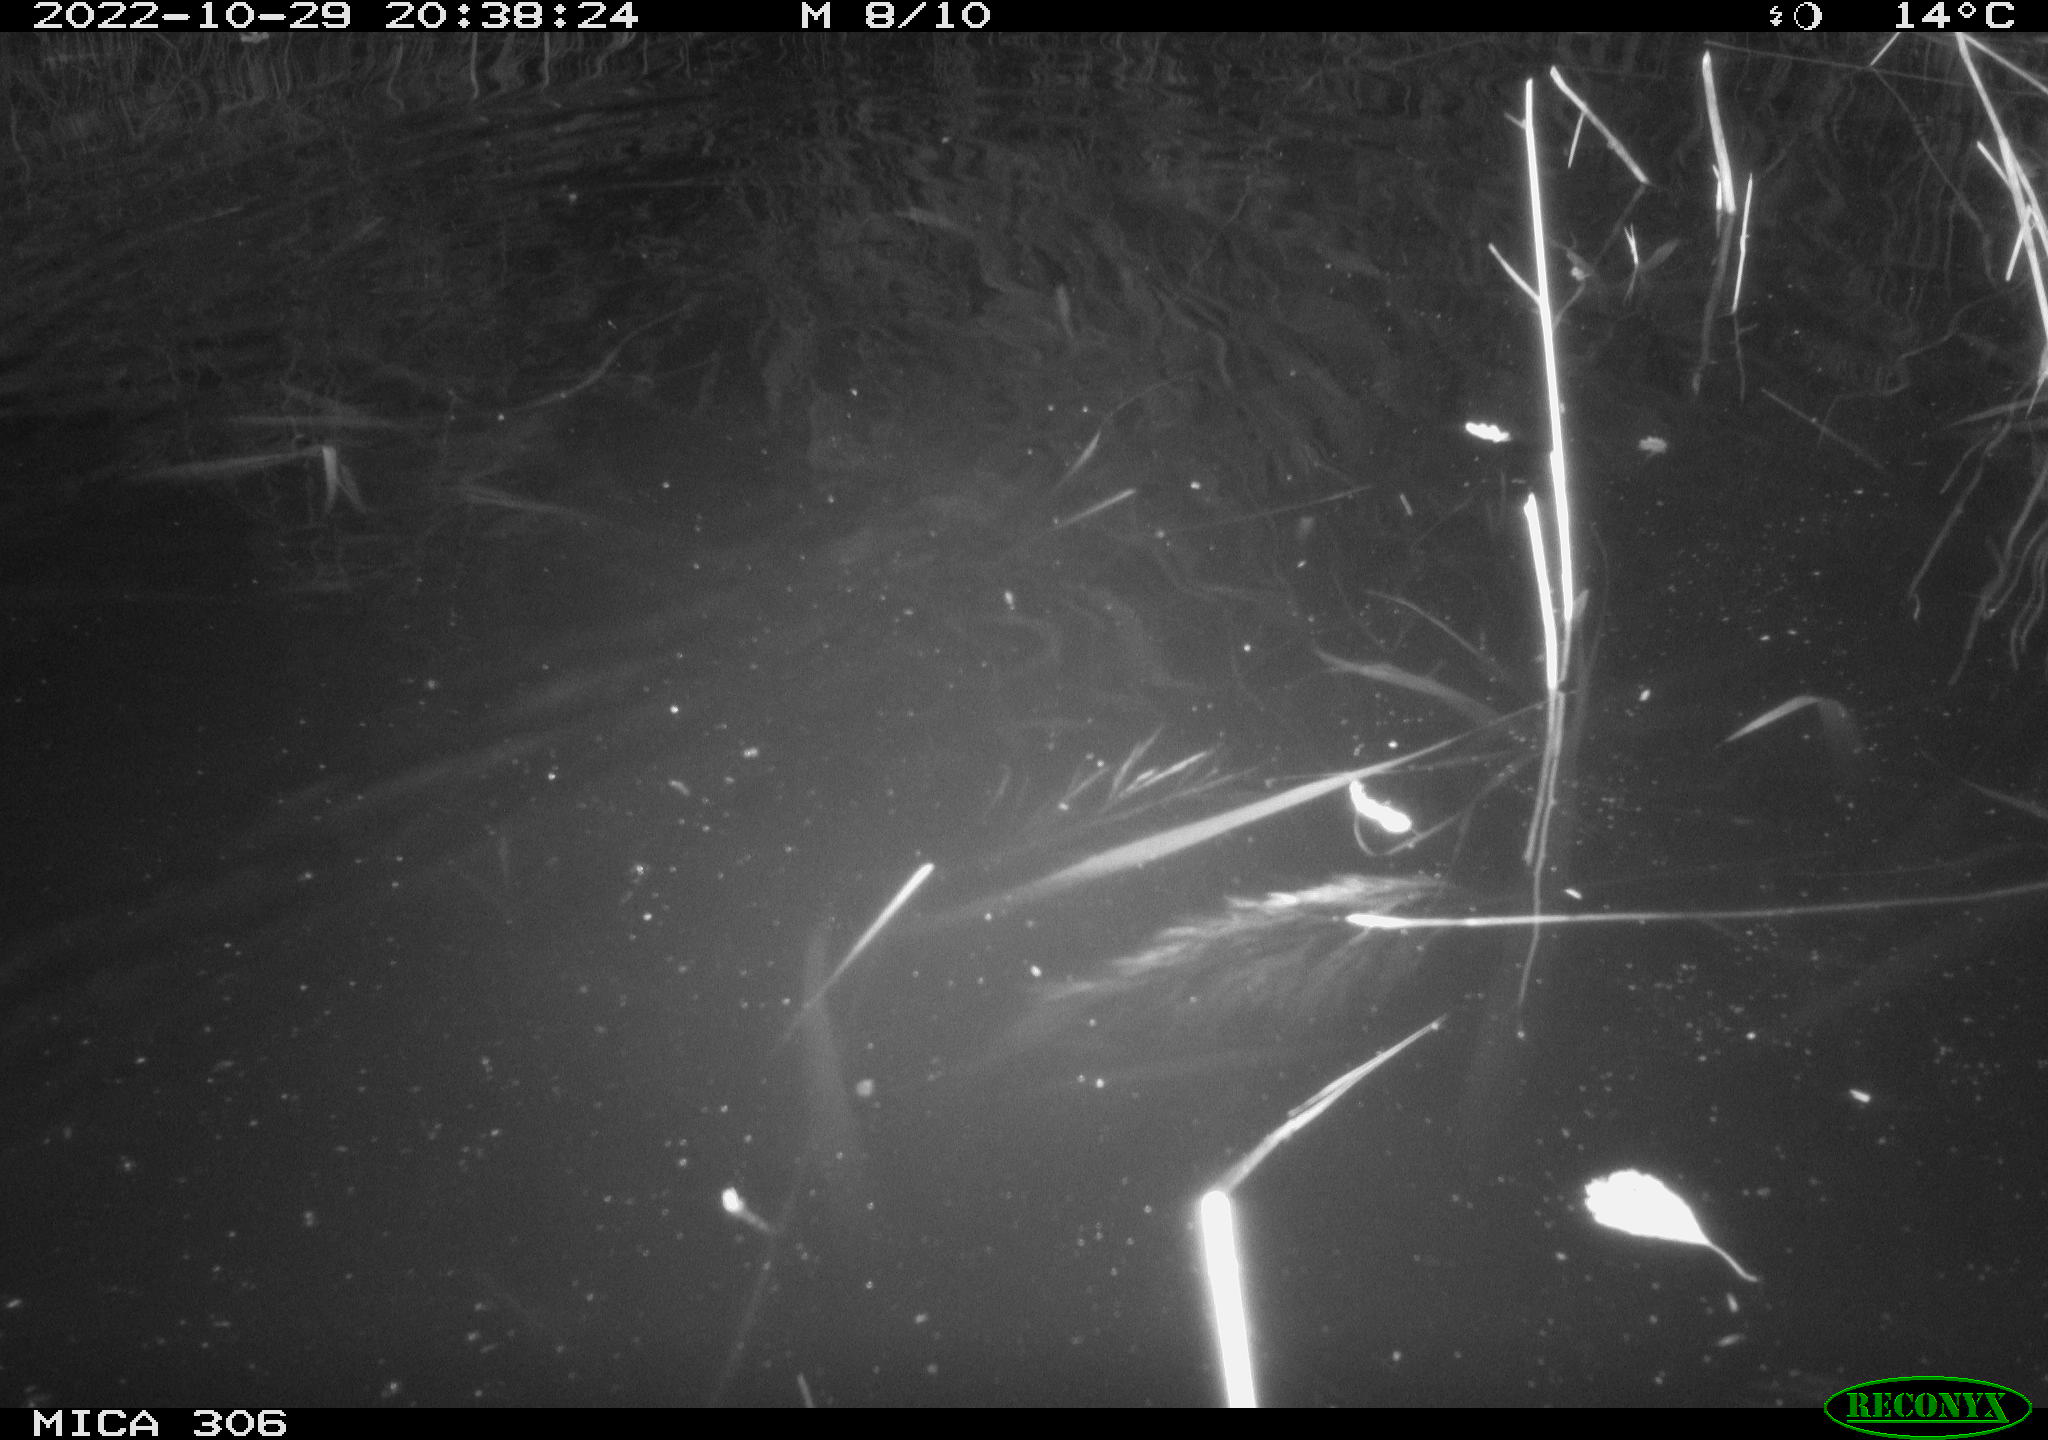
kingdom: Animalia
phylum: Chordata
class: Mammalia
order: Rodentia
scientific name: Rodentia
